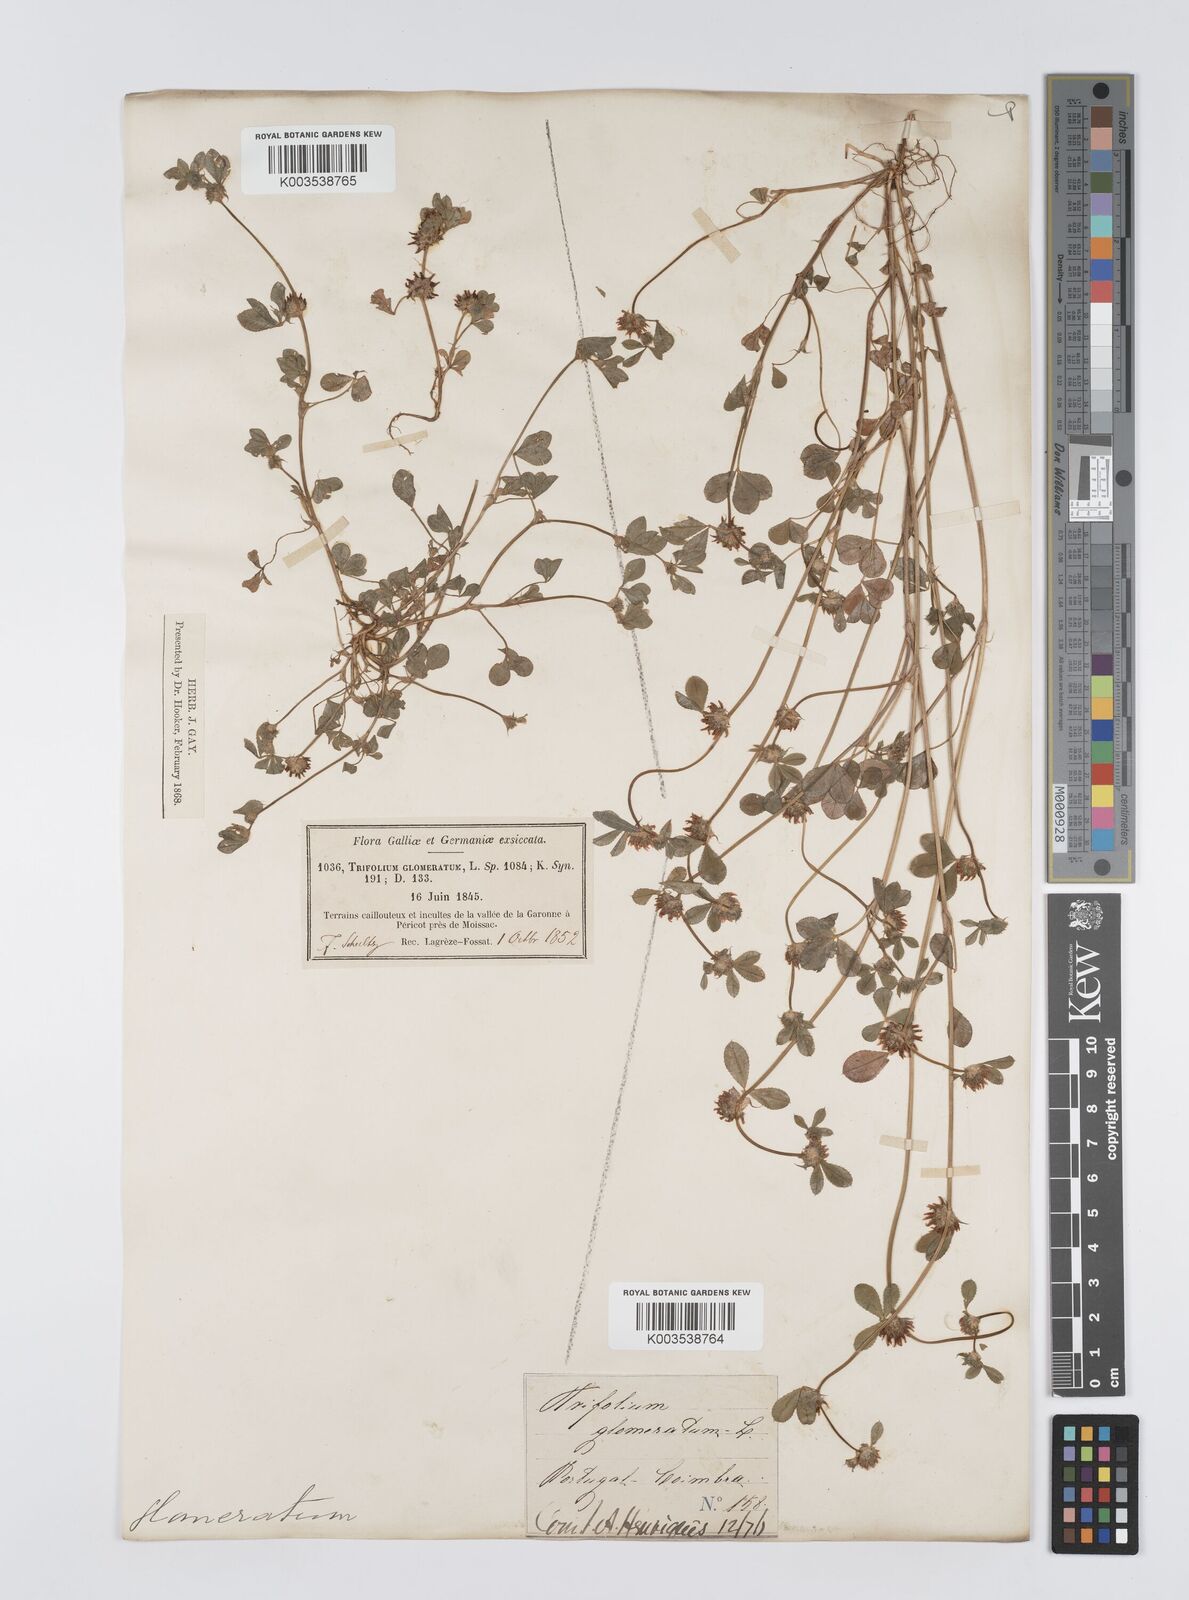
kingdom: Plantae
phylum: Tracheophyta
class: Magnoliopsida
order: Fabales
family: Fabaceae
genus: Trifolium
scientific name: Trifolium glomeratum
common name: Clustered clover
